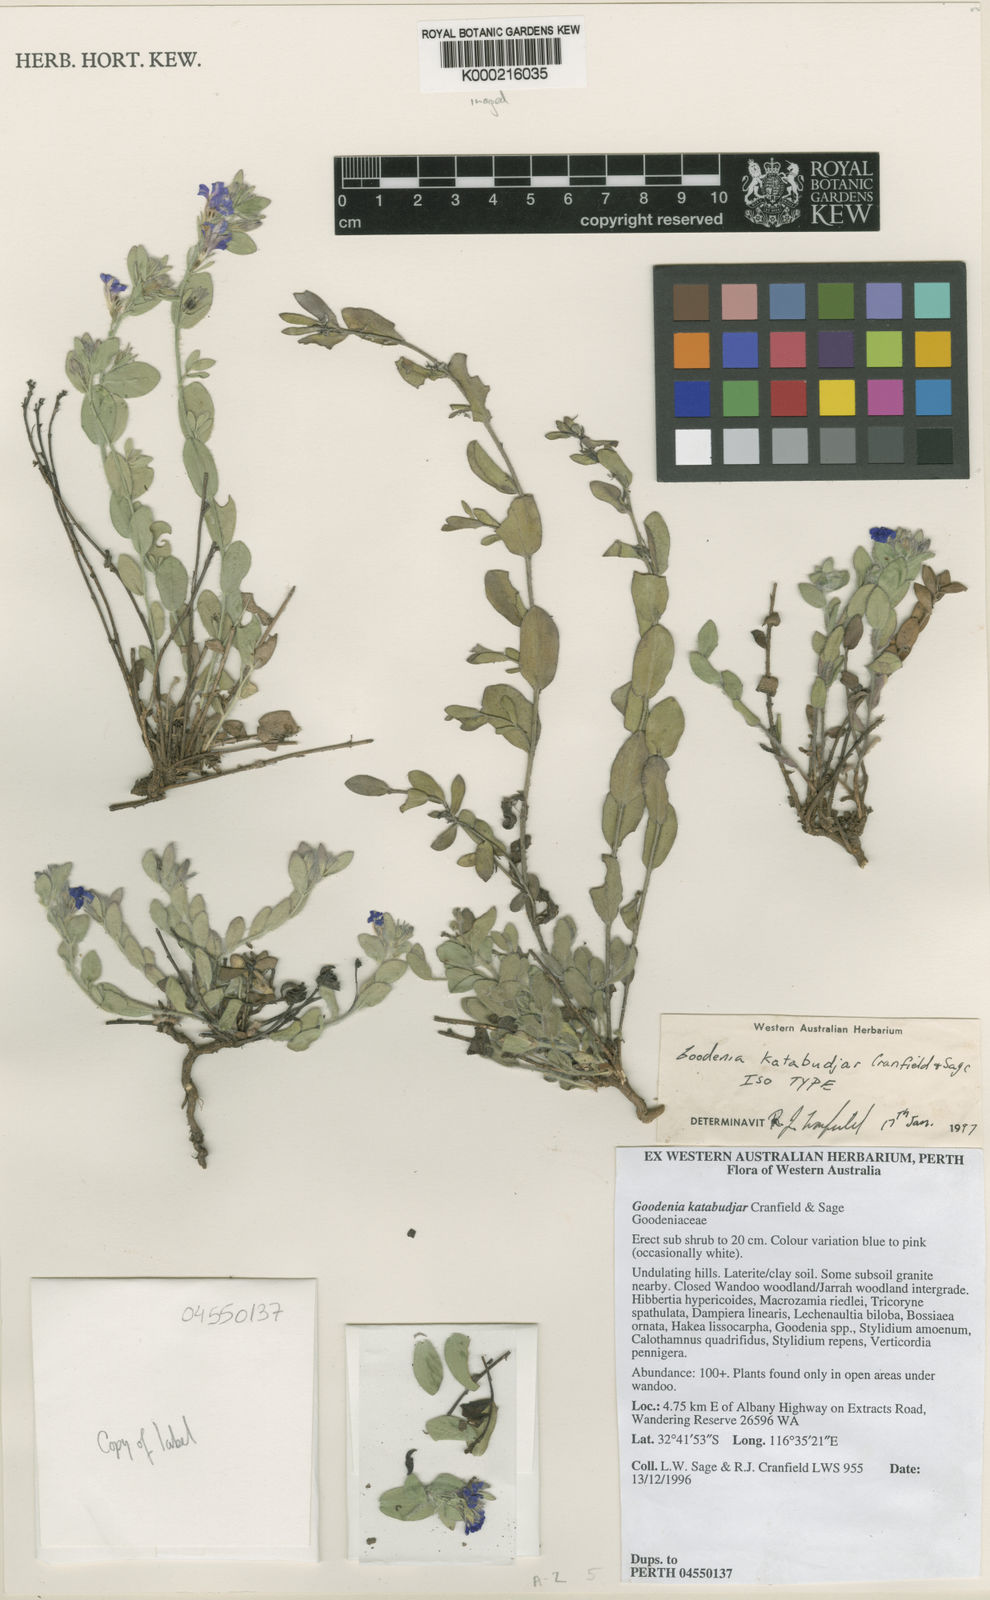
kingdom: Plantae
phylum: Tracheophyta
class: Magnoliopsida
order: Asterales
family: Goodeniaceae
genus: Goodenia
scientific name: Goodenia katabudjar
